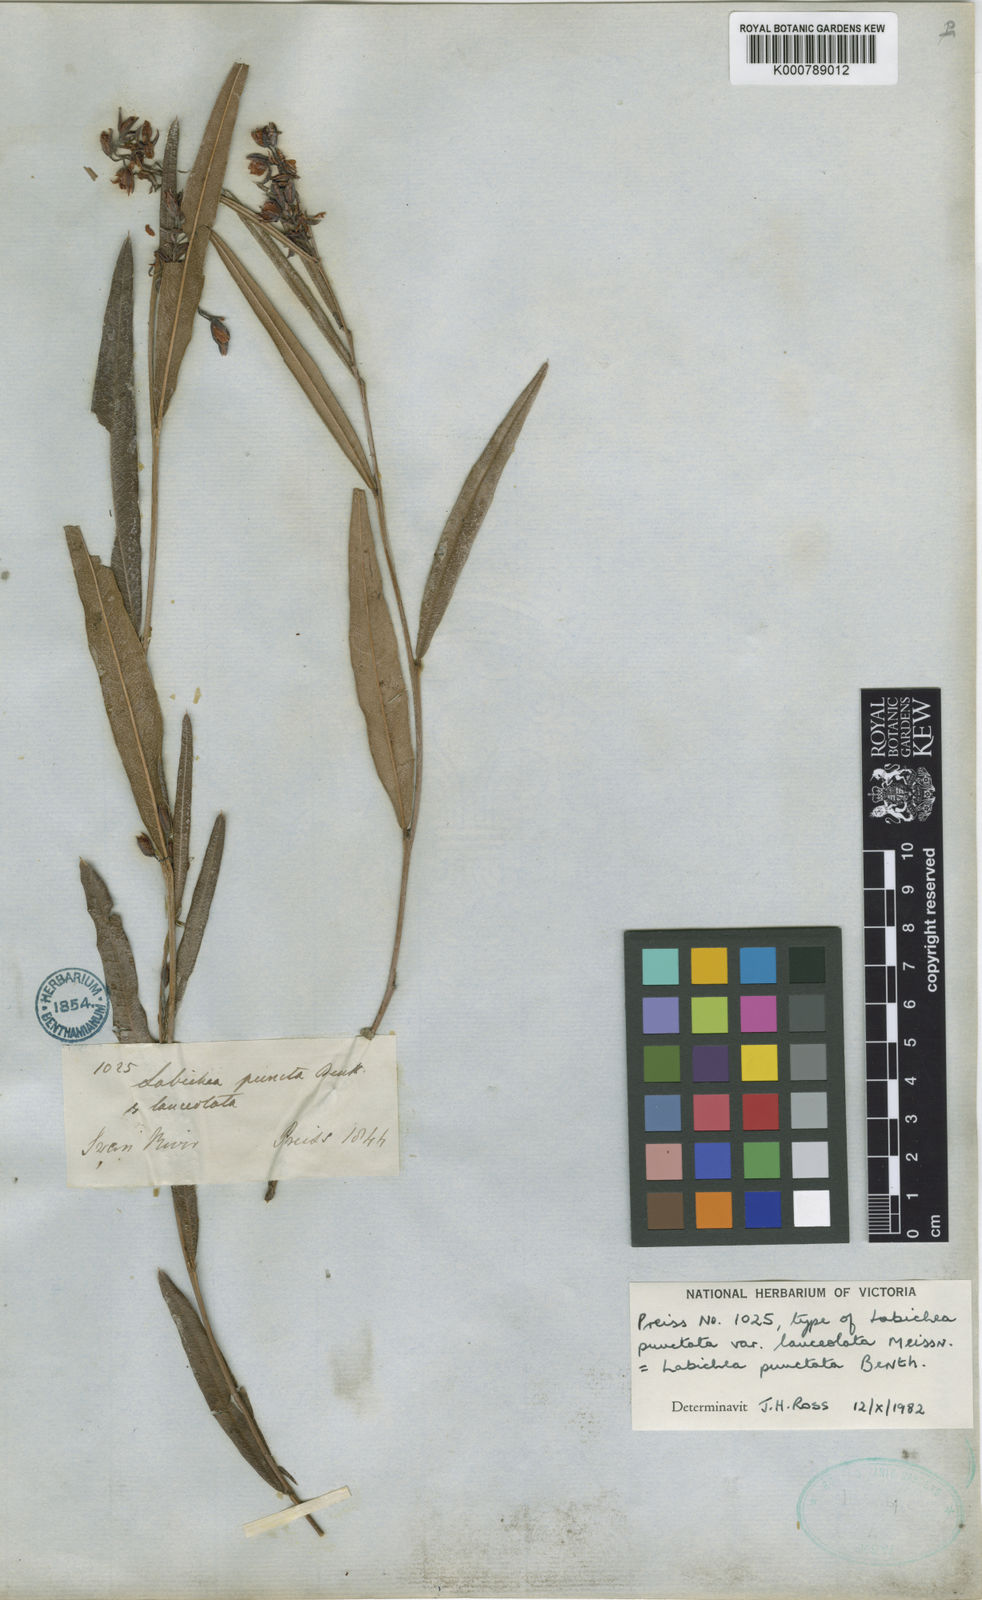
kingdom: Plantae
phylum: Tracheophyta
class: Magnoliopsida
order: Fabales
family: Fabaceae
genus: Labichea
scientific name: Labichea punctata
